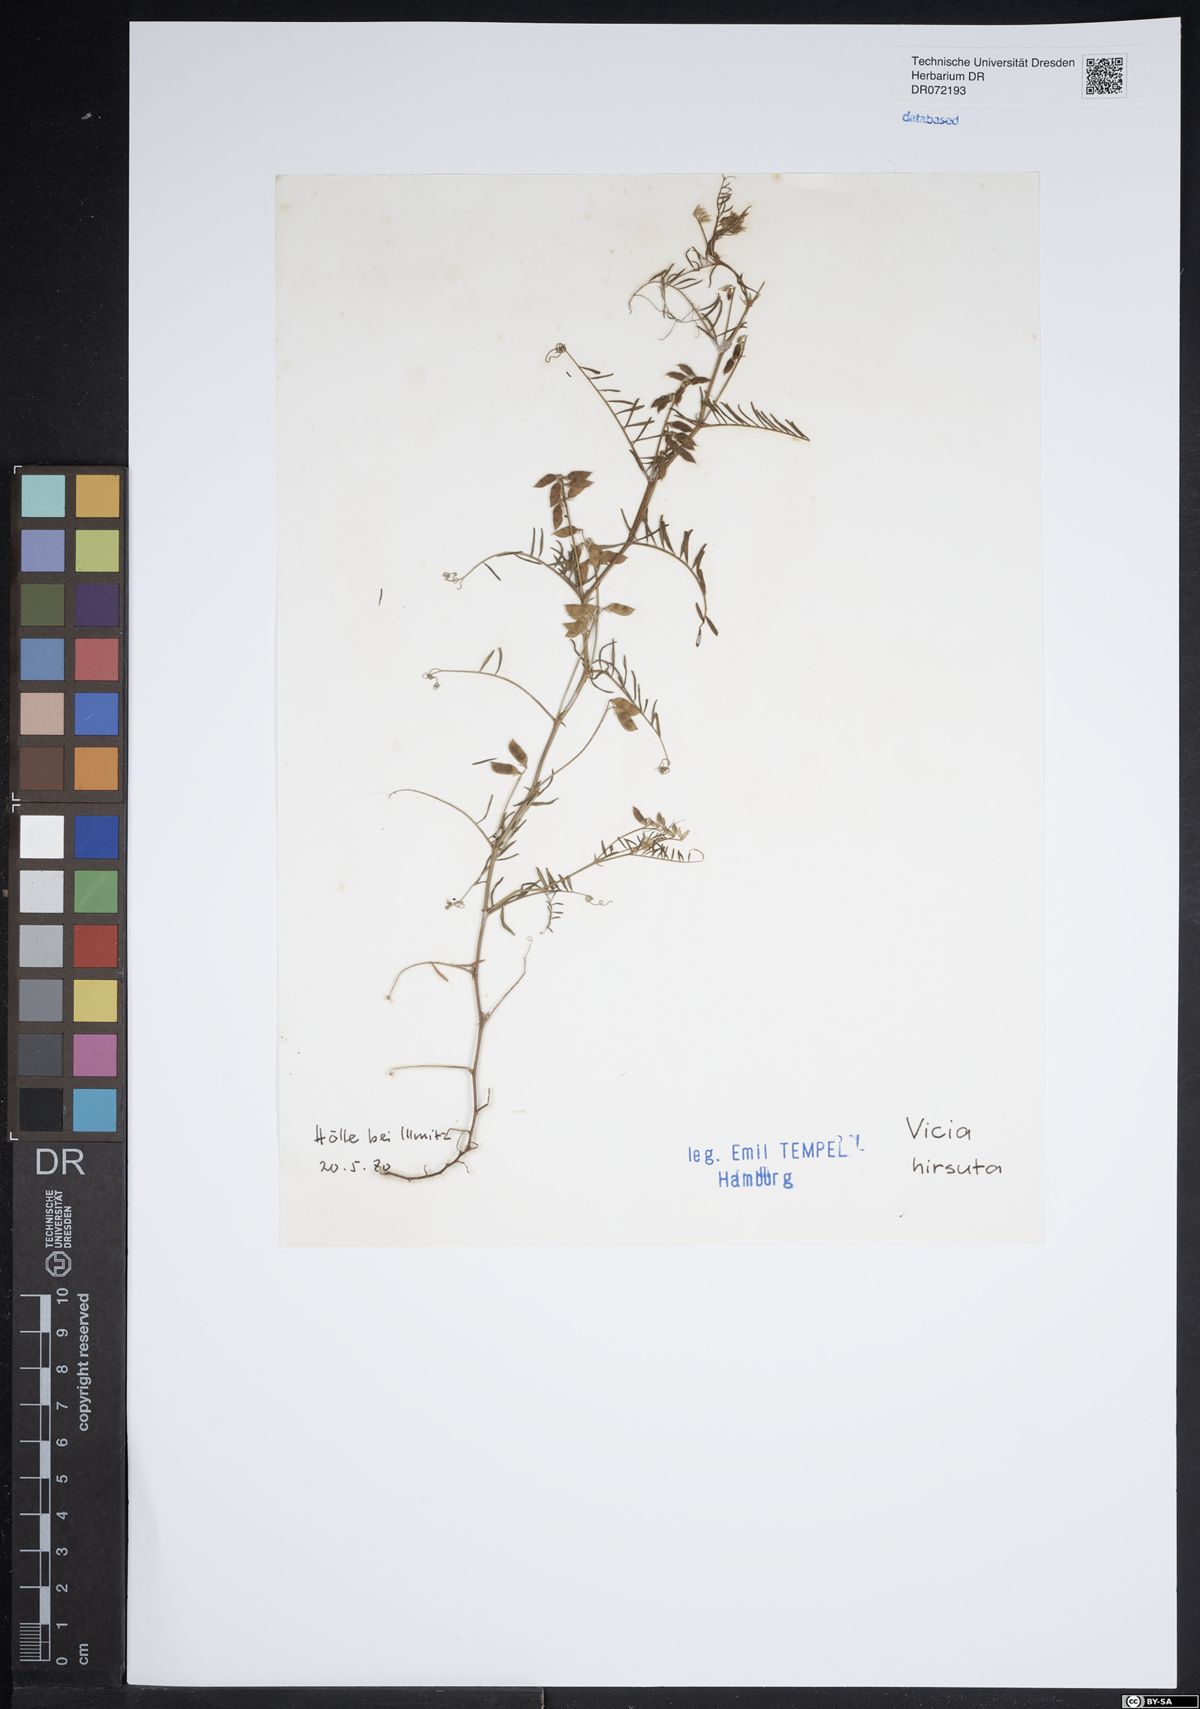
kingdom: Plantae
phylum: Tracheophyta
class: Magnoliopsida
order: Fabales
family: Fabaceae
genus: Vicia
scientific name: Vicia hirsuta
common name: Tiny vetch
